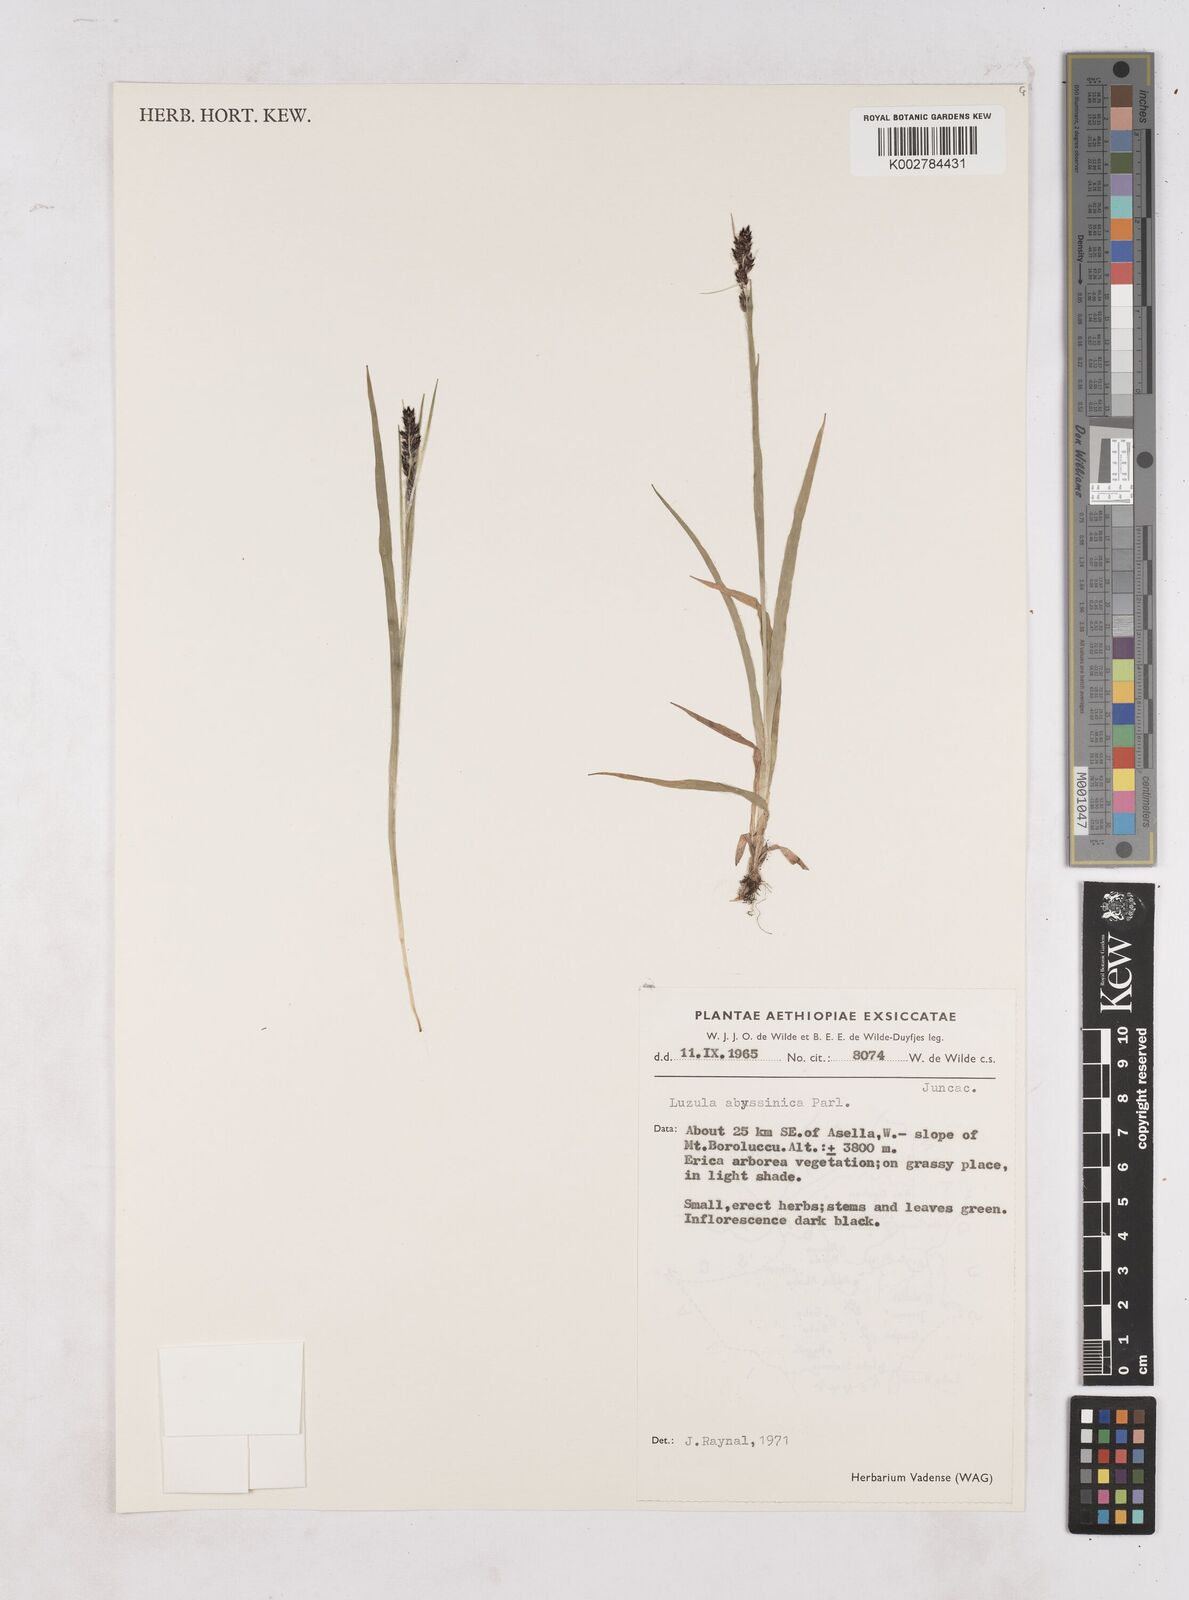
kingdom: Plantae
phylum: Tracheophyta
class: Liliopsida
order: Poales
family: Juncaceae
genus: Luzula
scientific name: Luzula abyssinica
